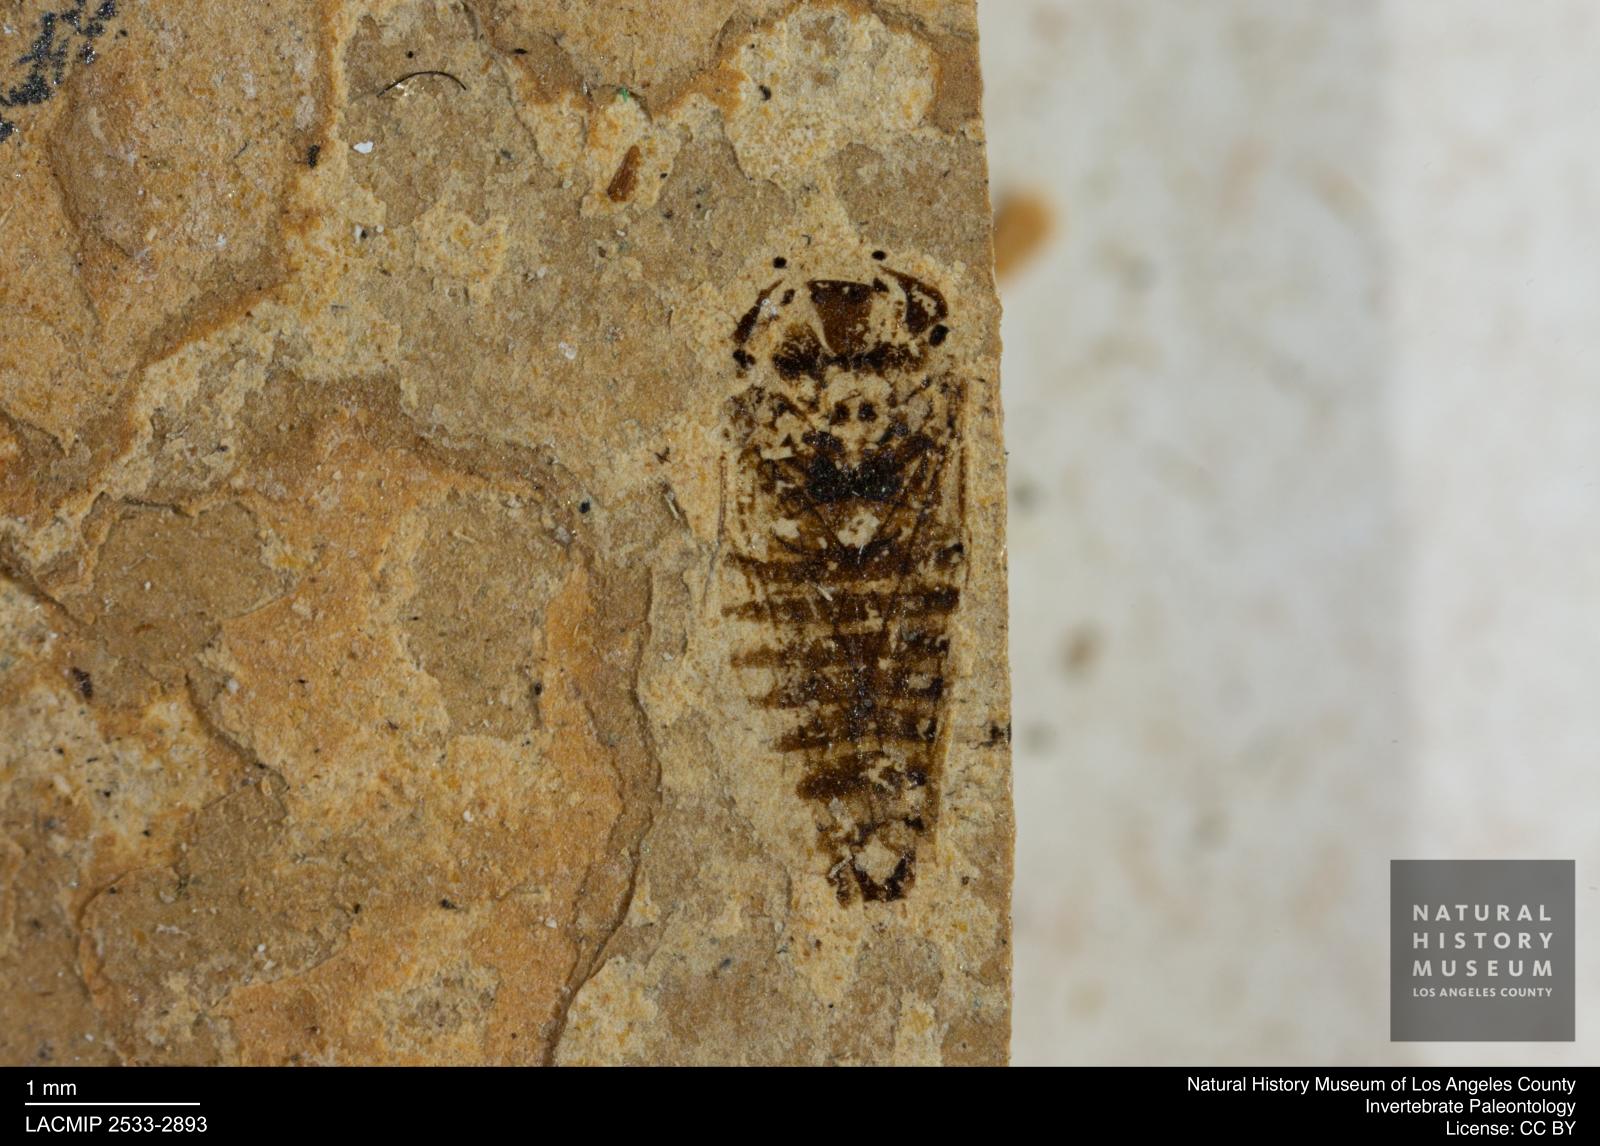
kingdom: Animalia
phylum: Arthropoda
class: Insecta
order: Hemiptera
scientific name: Hemiptera
